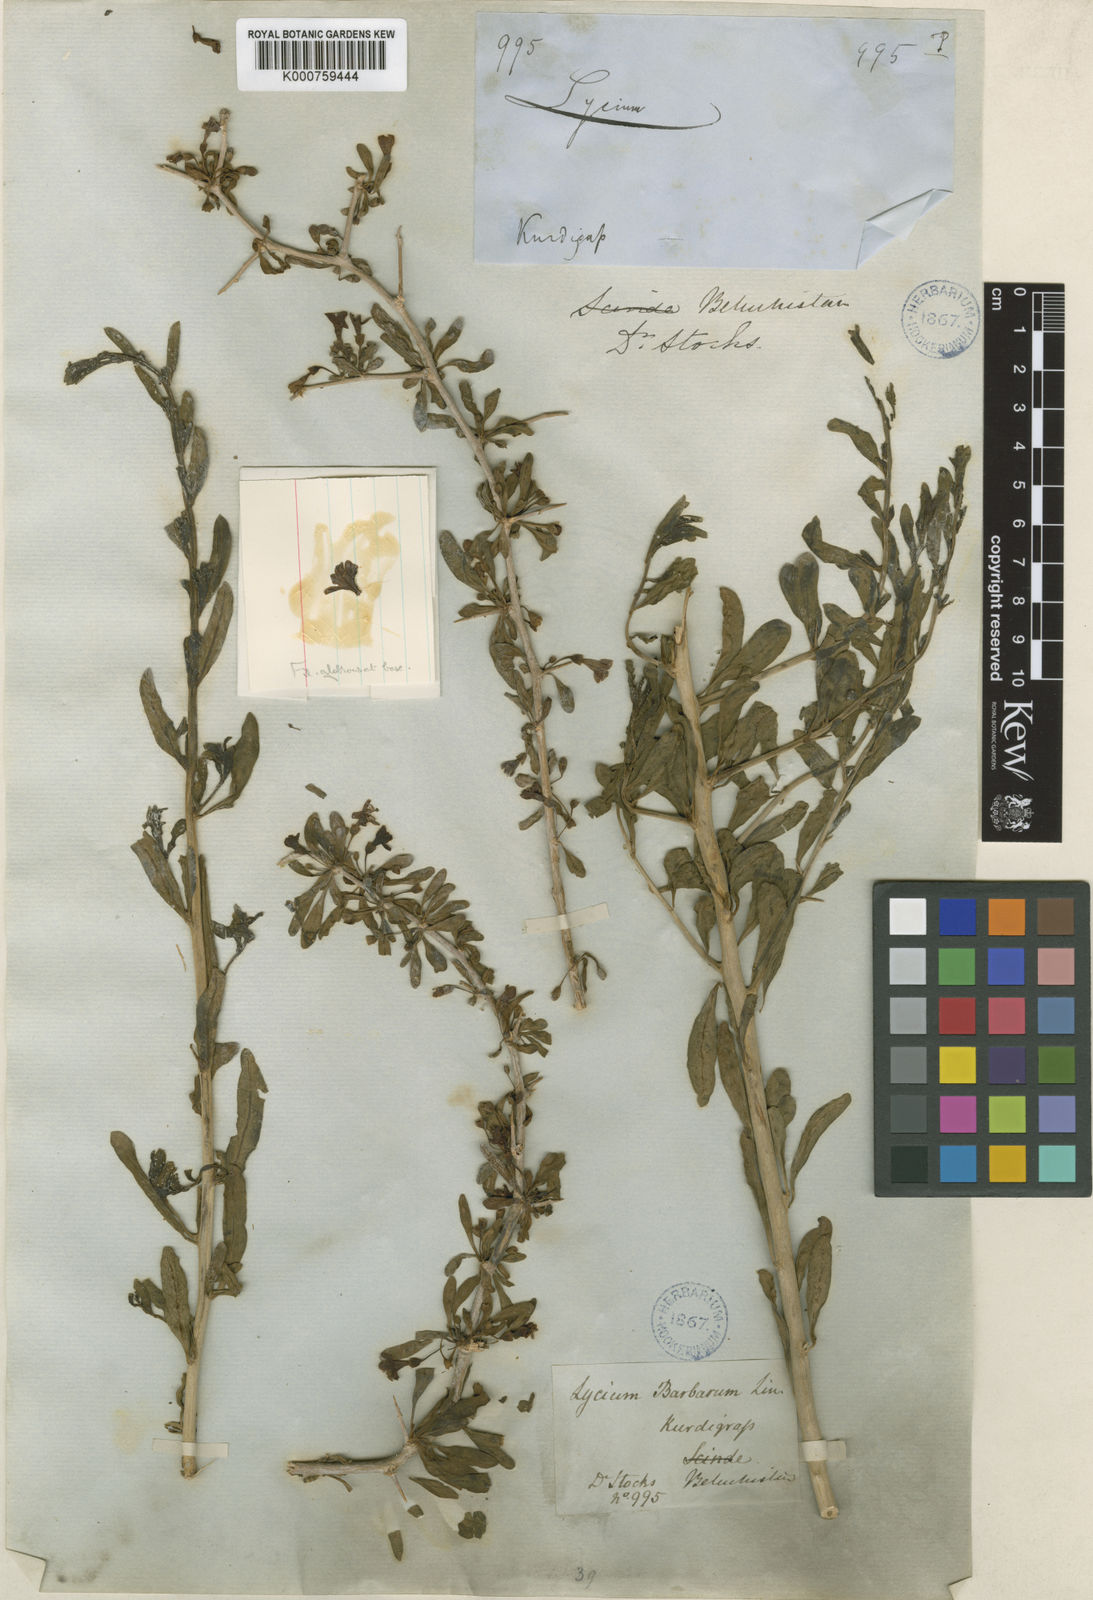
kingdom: Plantae
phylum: Tracheophyta
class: Magnoliopsida
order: Solanales
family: Solanaceae
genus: Lycium
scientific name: Lycium depressum
